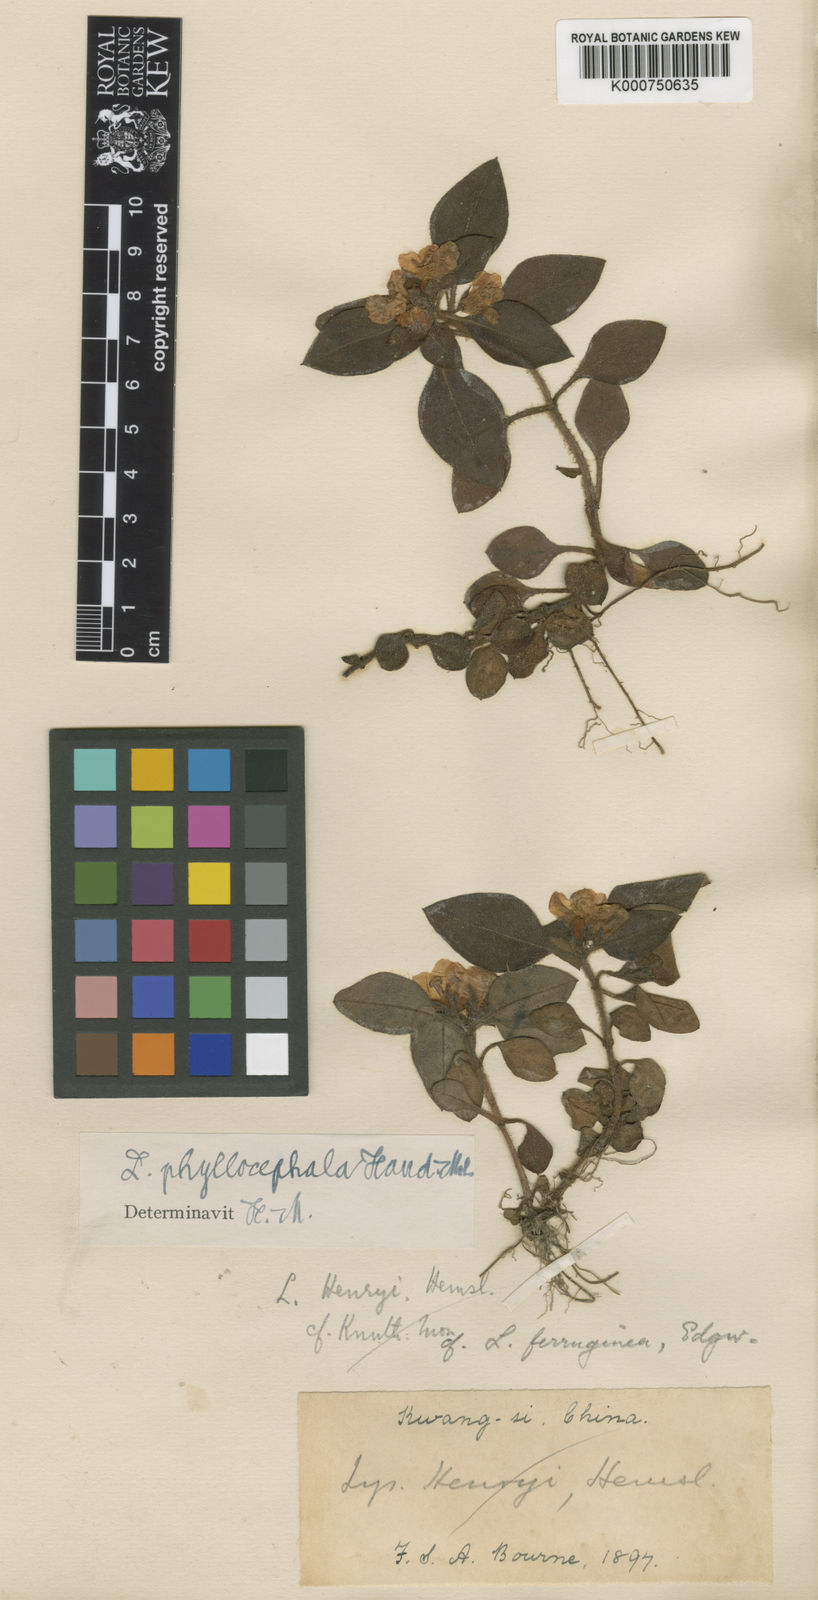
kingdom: Plantae
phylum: Tracheophyta
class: Magnoliopsida
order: Ericales
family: Primulaceae
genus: Lysimachia
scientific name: Lysimachia phyllocephala
